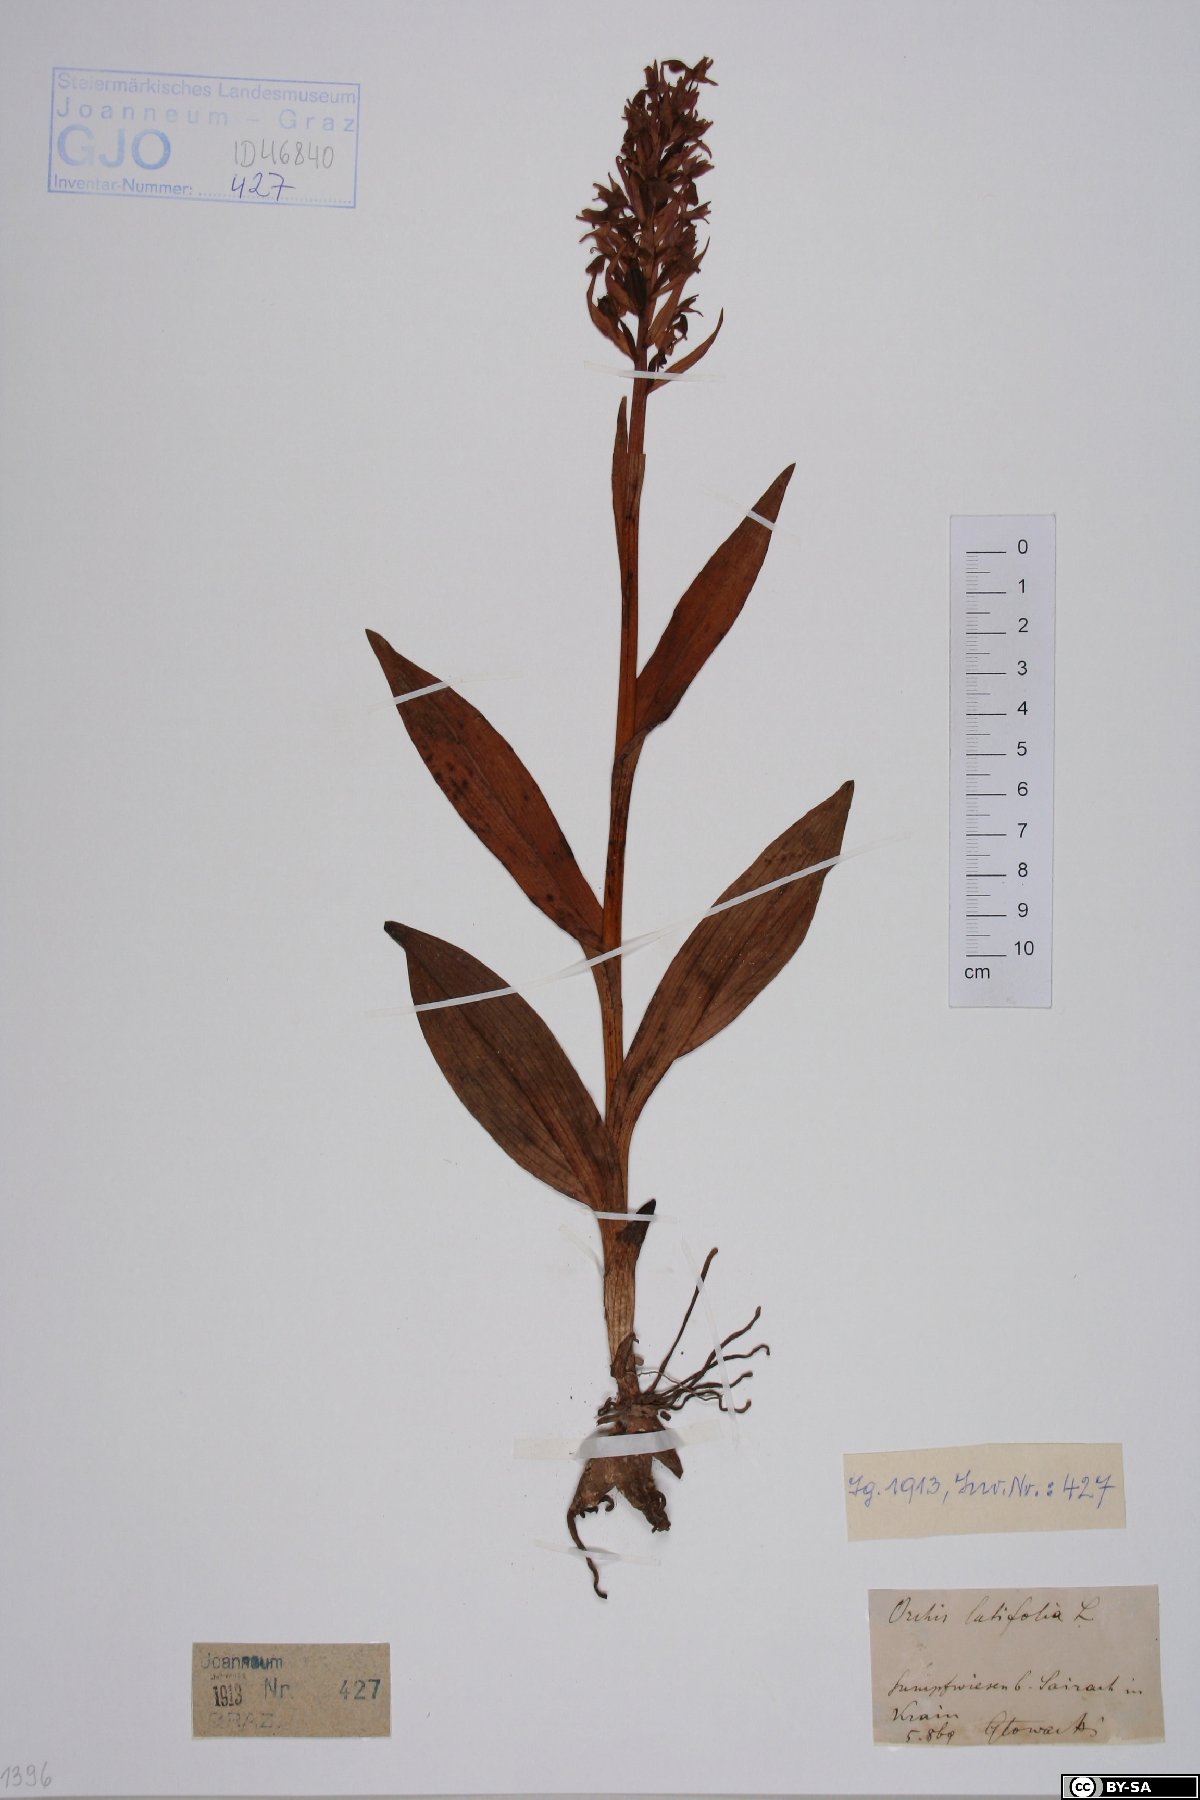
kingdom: Plantae
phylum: Tracheophyta
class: Liliopsida
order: Asparagales
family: Orchidaceae
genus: Dactylorhiza
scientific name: Dactylorhiza incarnata
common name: Early marsh-orchid
